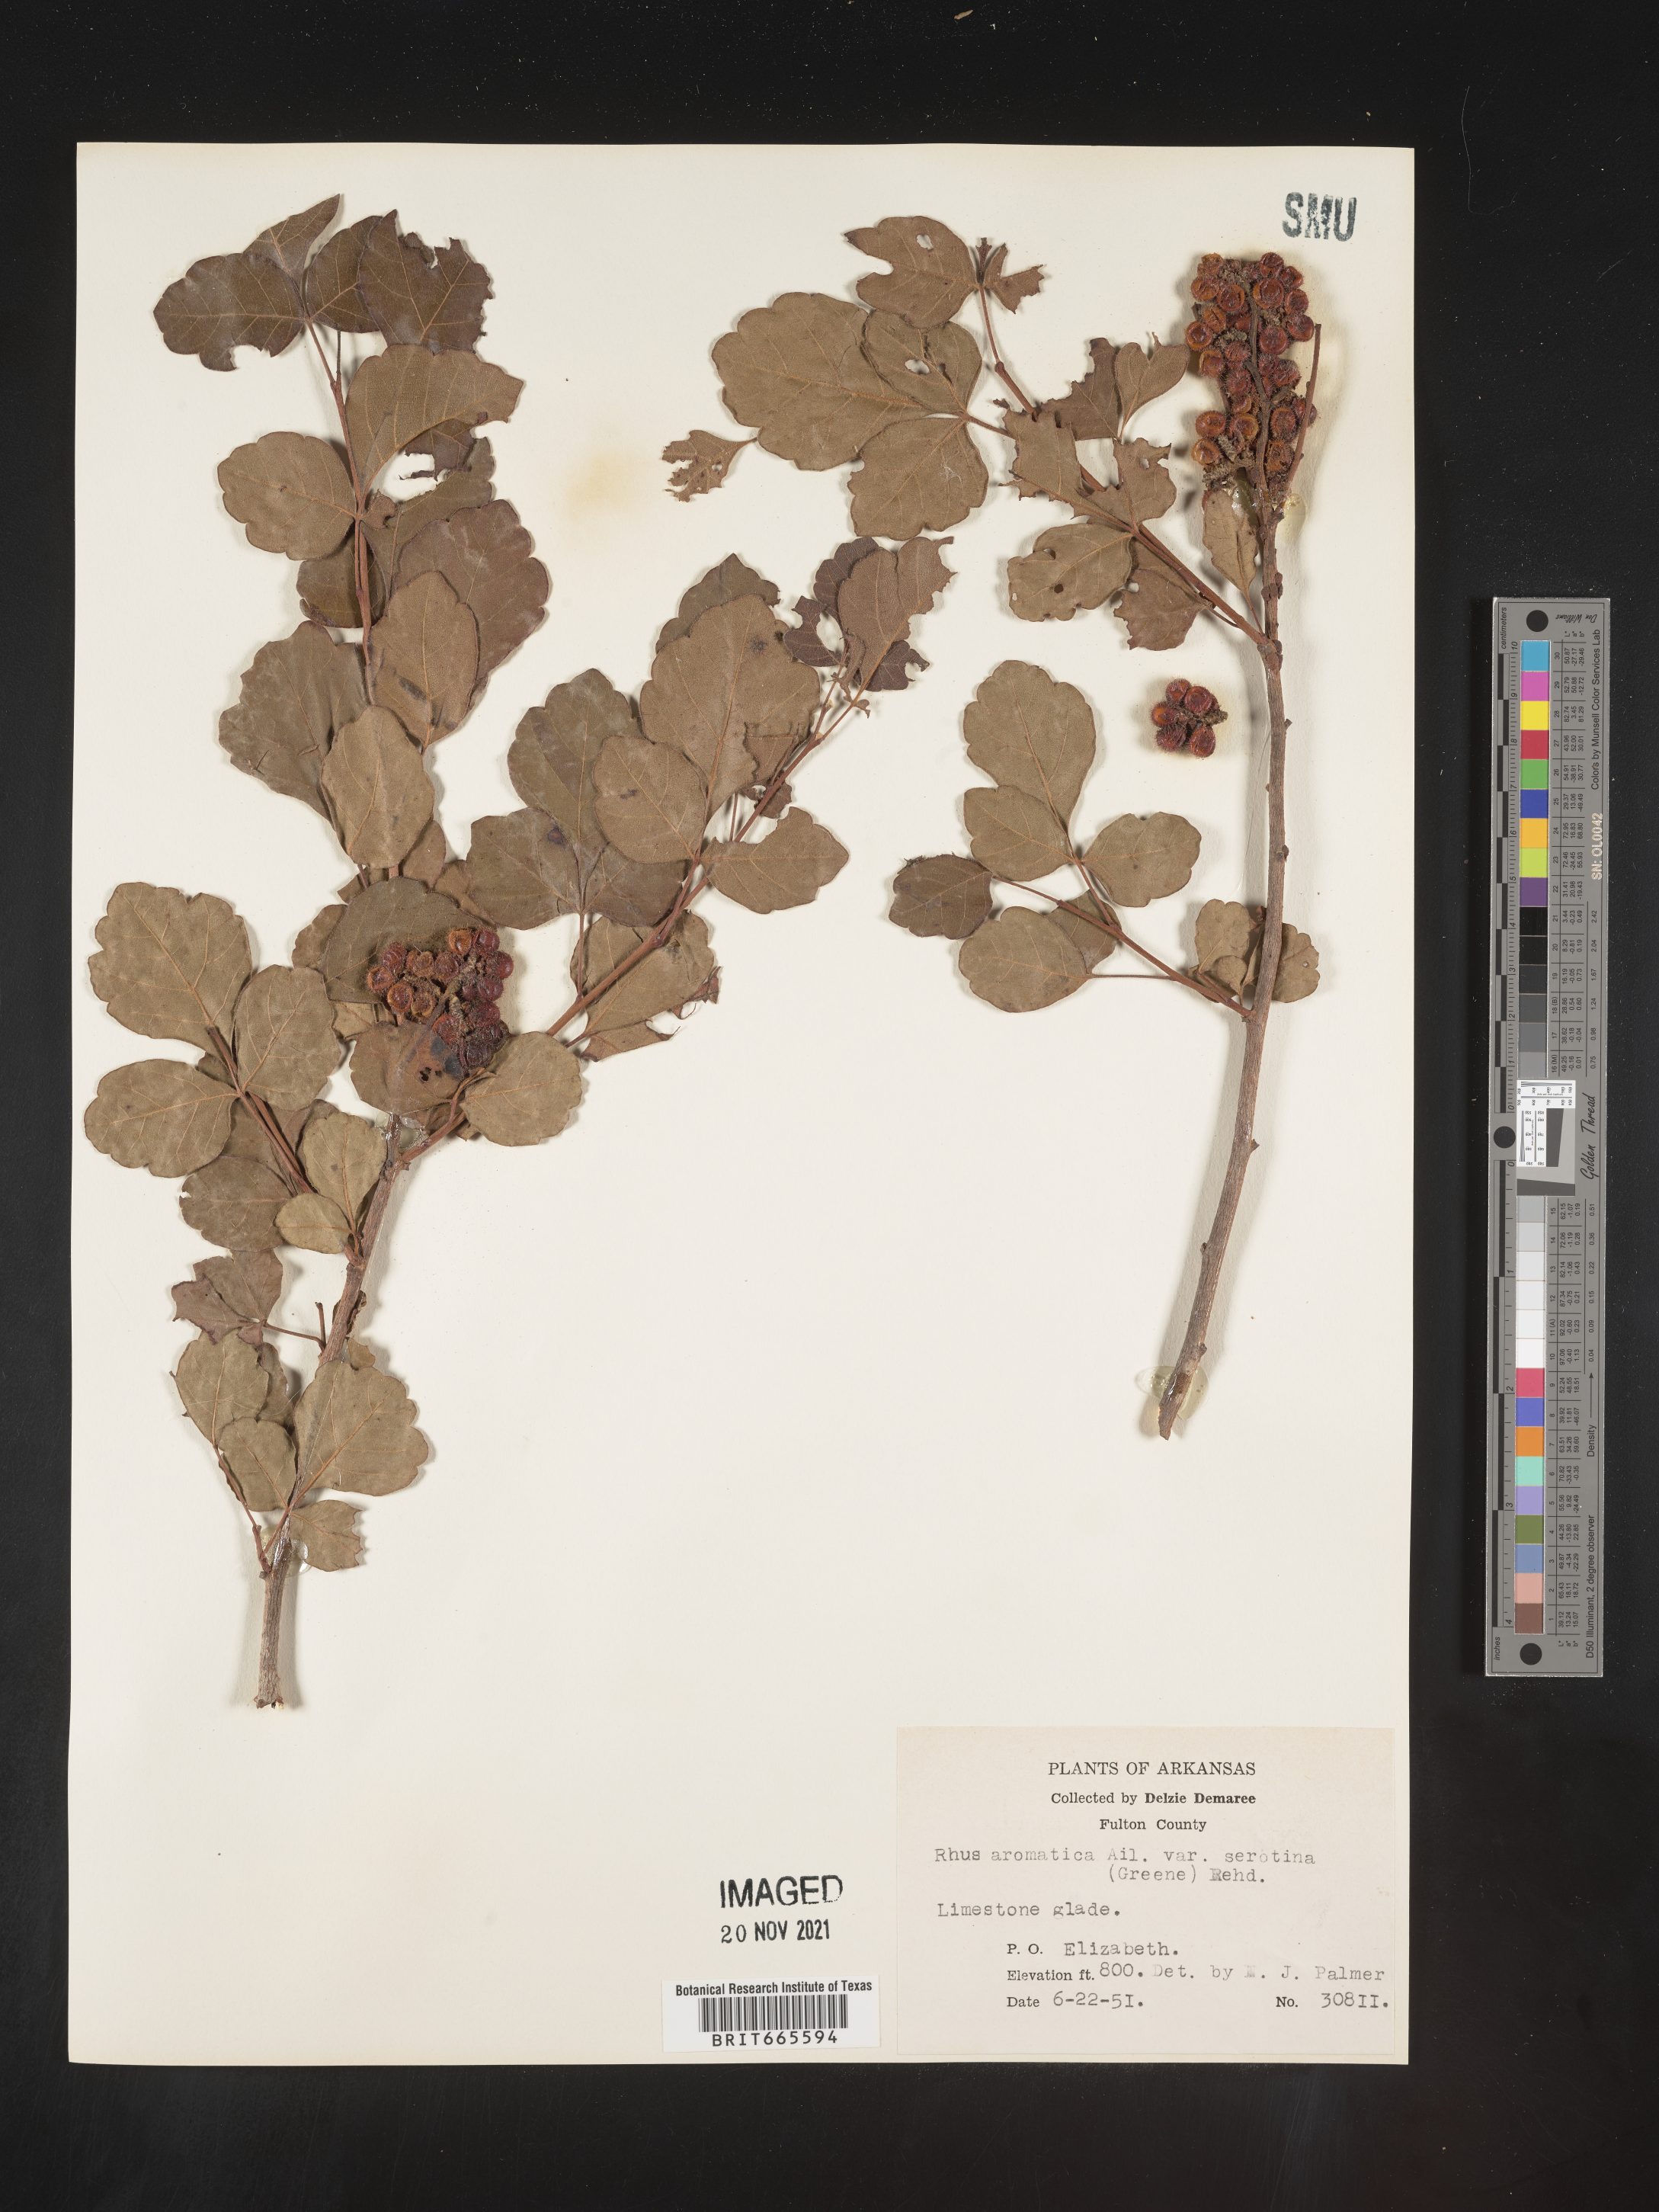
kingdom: Plantae
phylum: Tracheophyta
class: Magnoliopsida
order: Sapindales
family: Anacardiaceae
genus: Rhus
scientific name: Rhus aromatica
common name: Aromatic sumac
